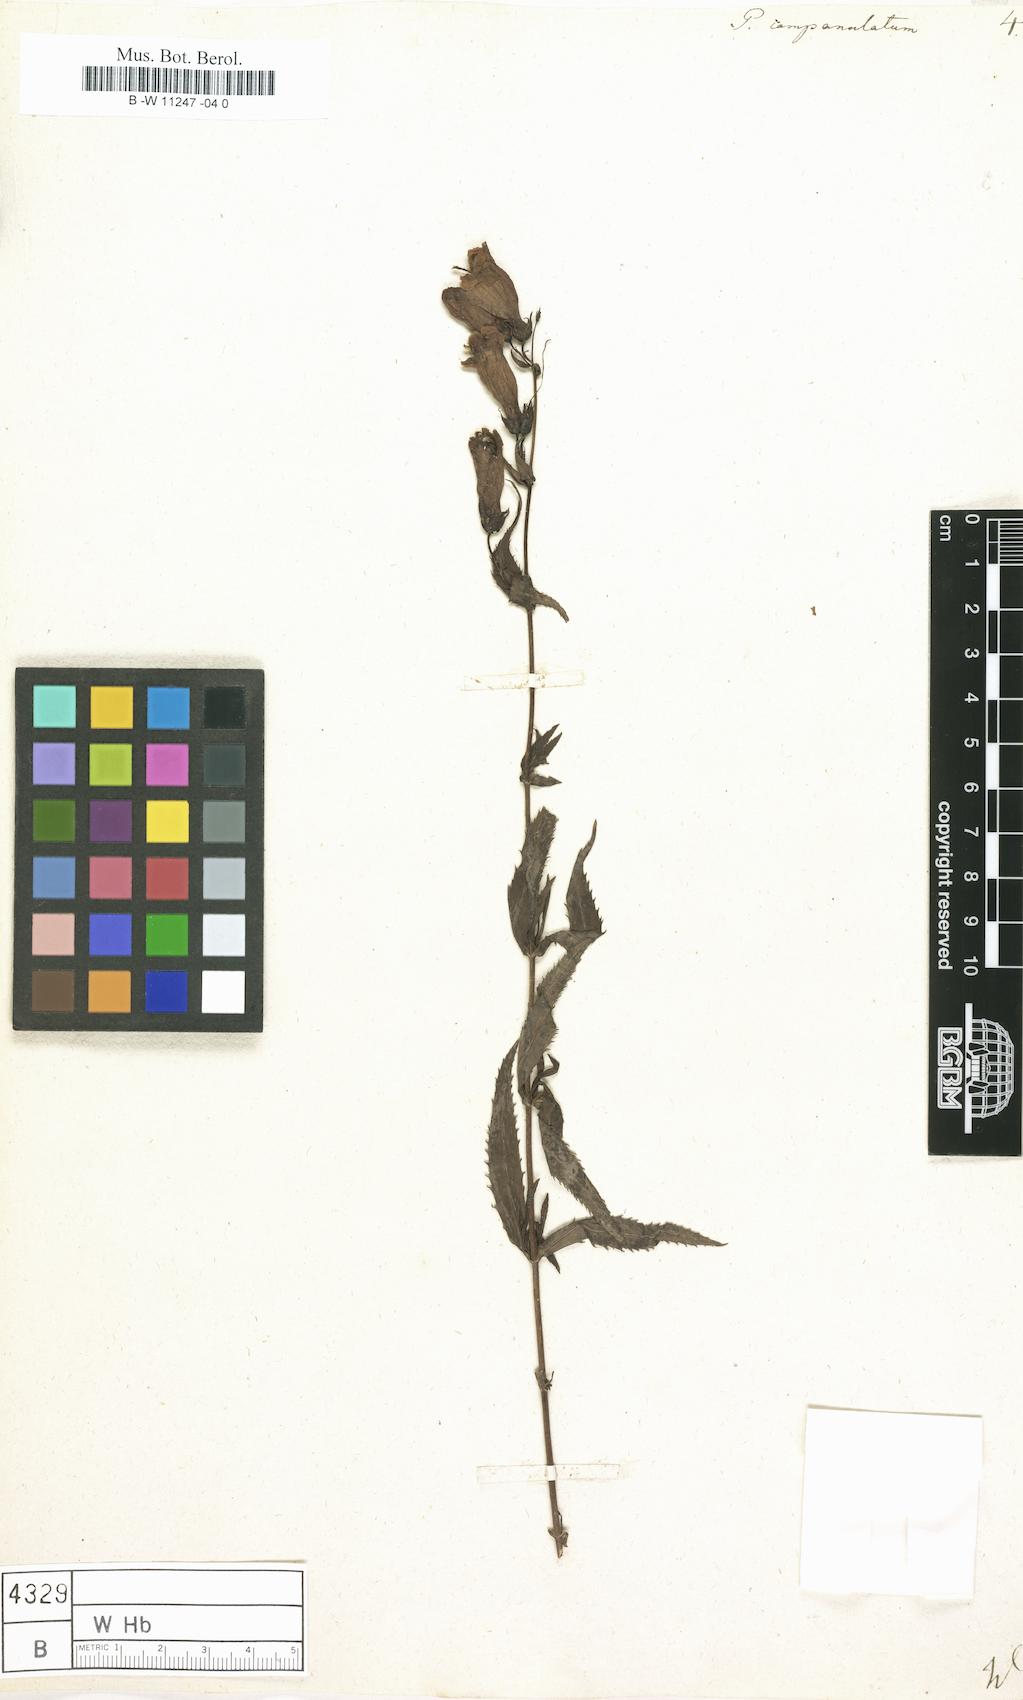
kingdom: Plantae
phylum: Tracheophyta
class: Magnoliopsida
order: Lamiales
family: Plantaginaceae
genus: Penstemon
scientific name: Penstemon campanulatus
